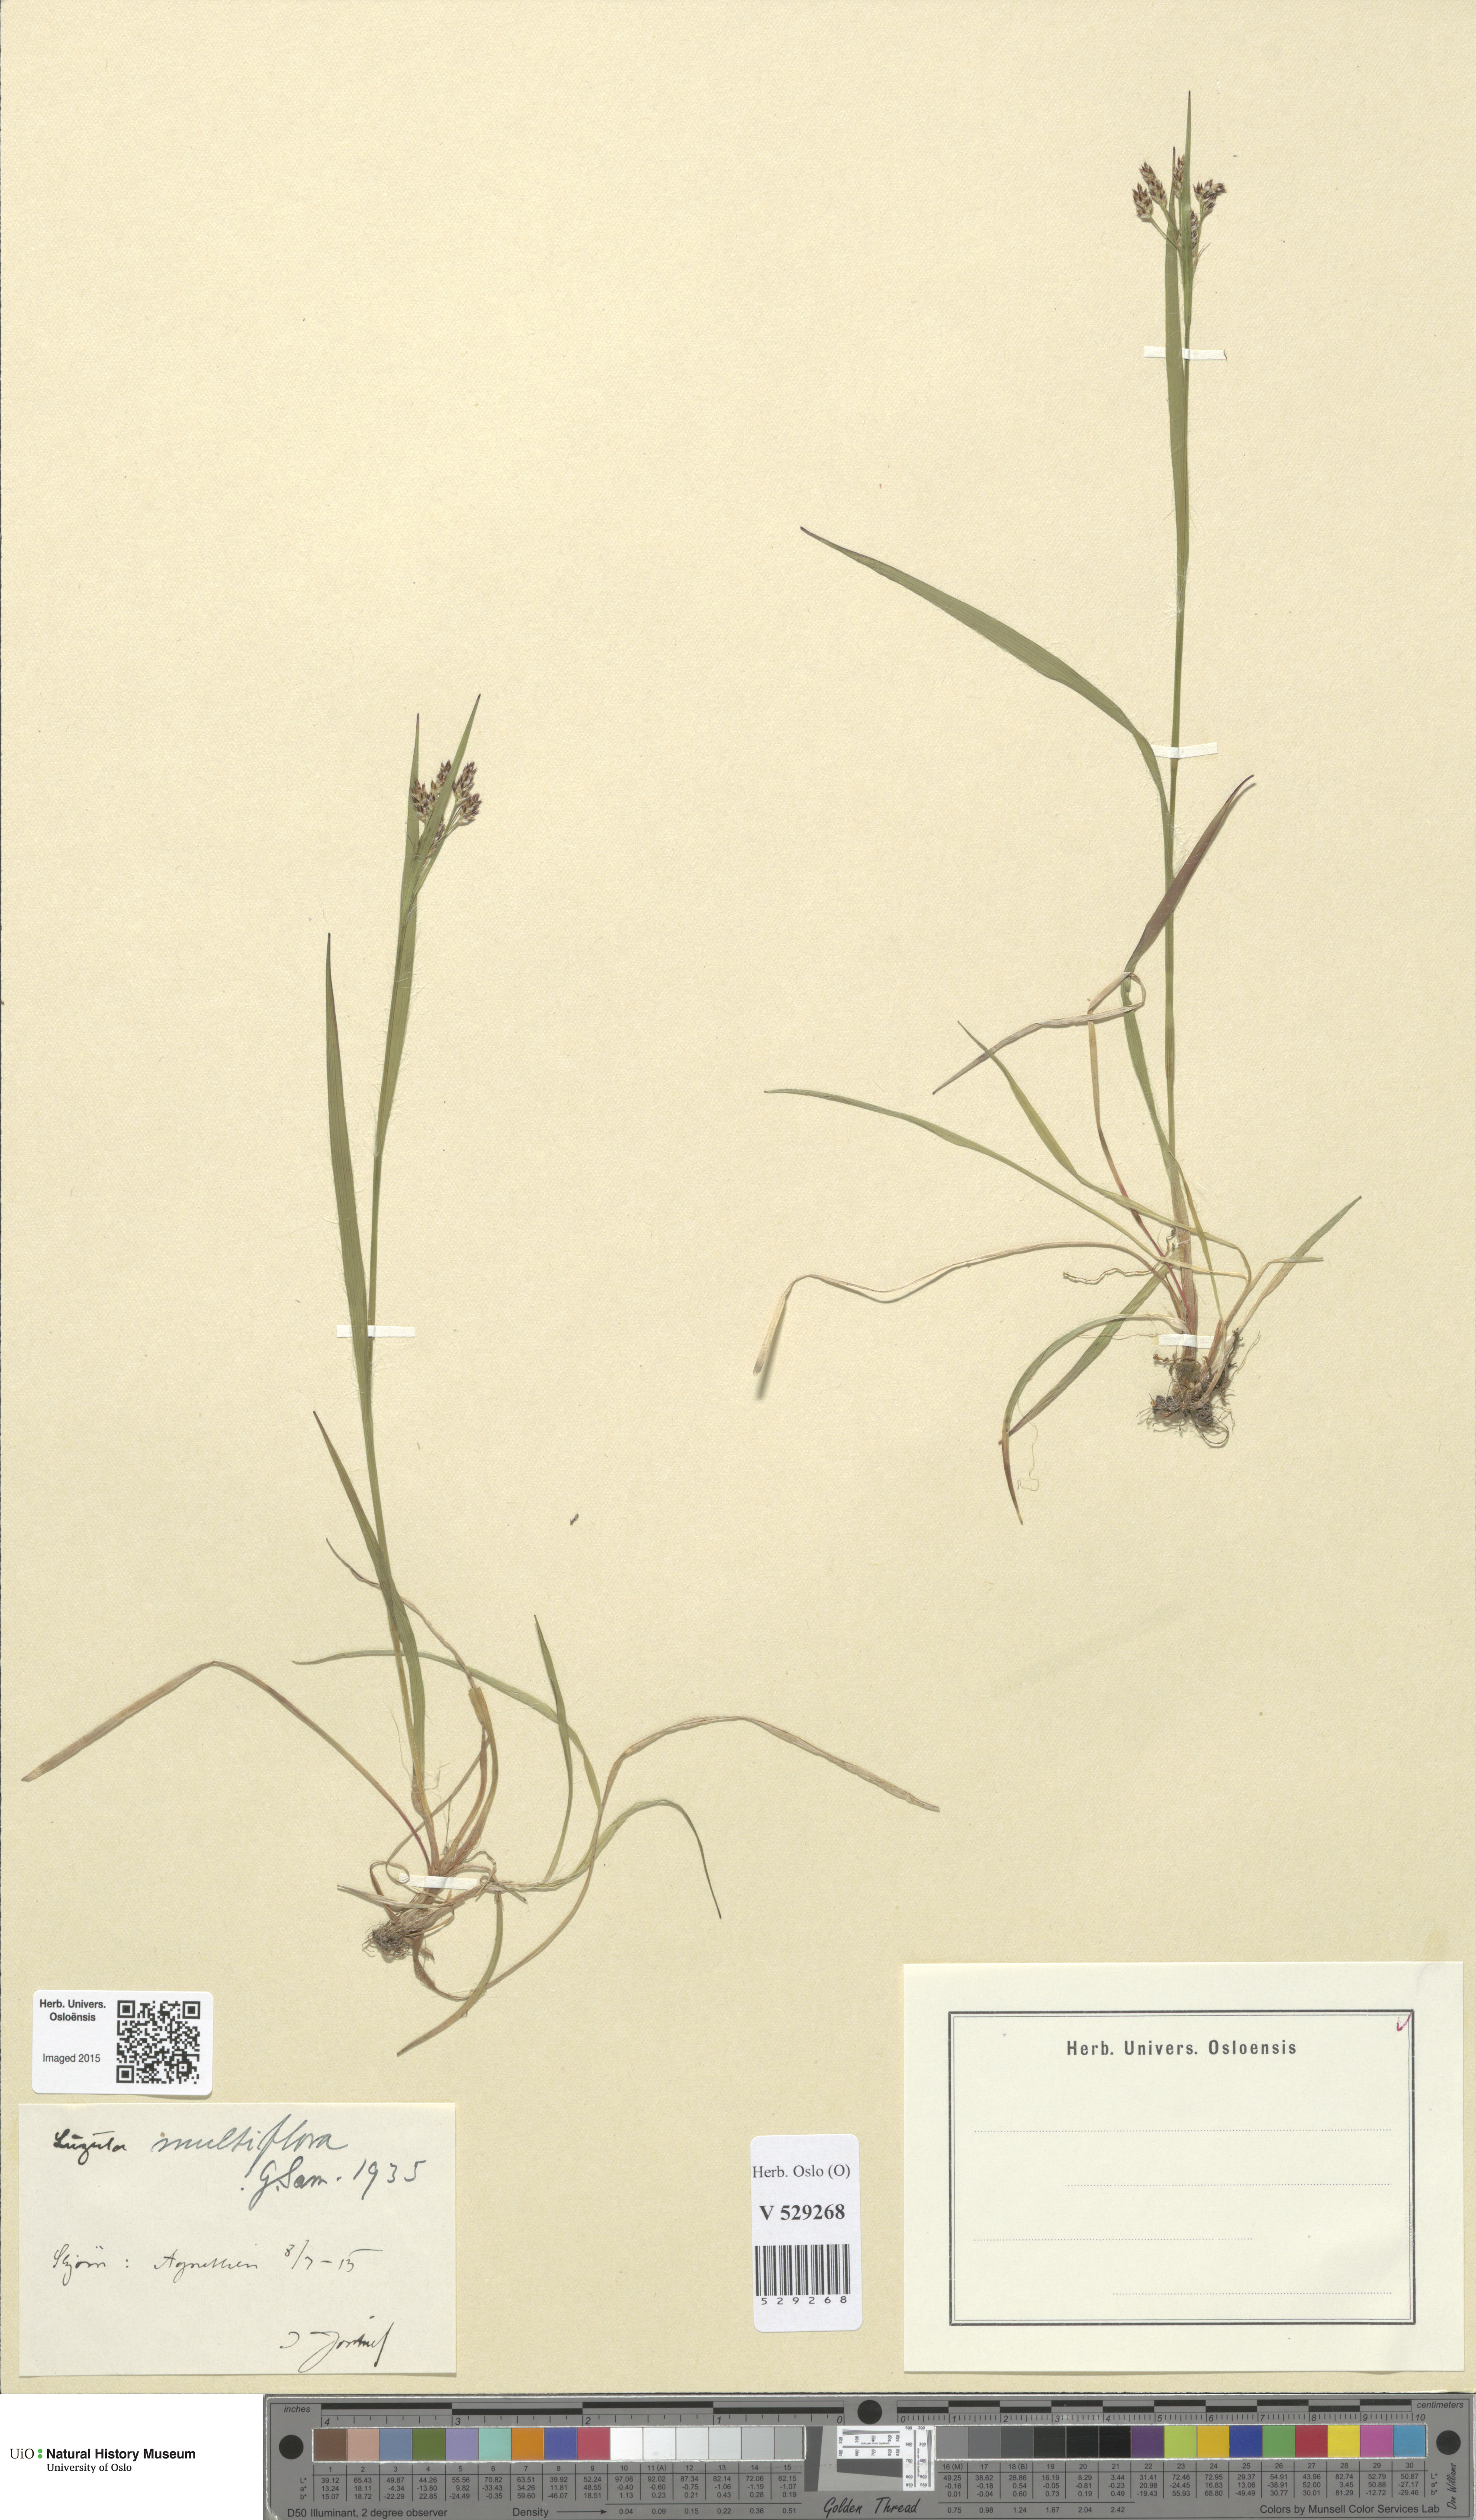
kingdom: Plantae
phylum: Tracheophyta
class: Liliopsida
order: Poales
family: Juncaceae
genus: Luzula
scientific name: Luzula multiflora
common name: Heath wood-rush
